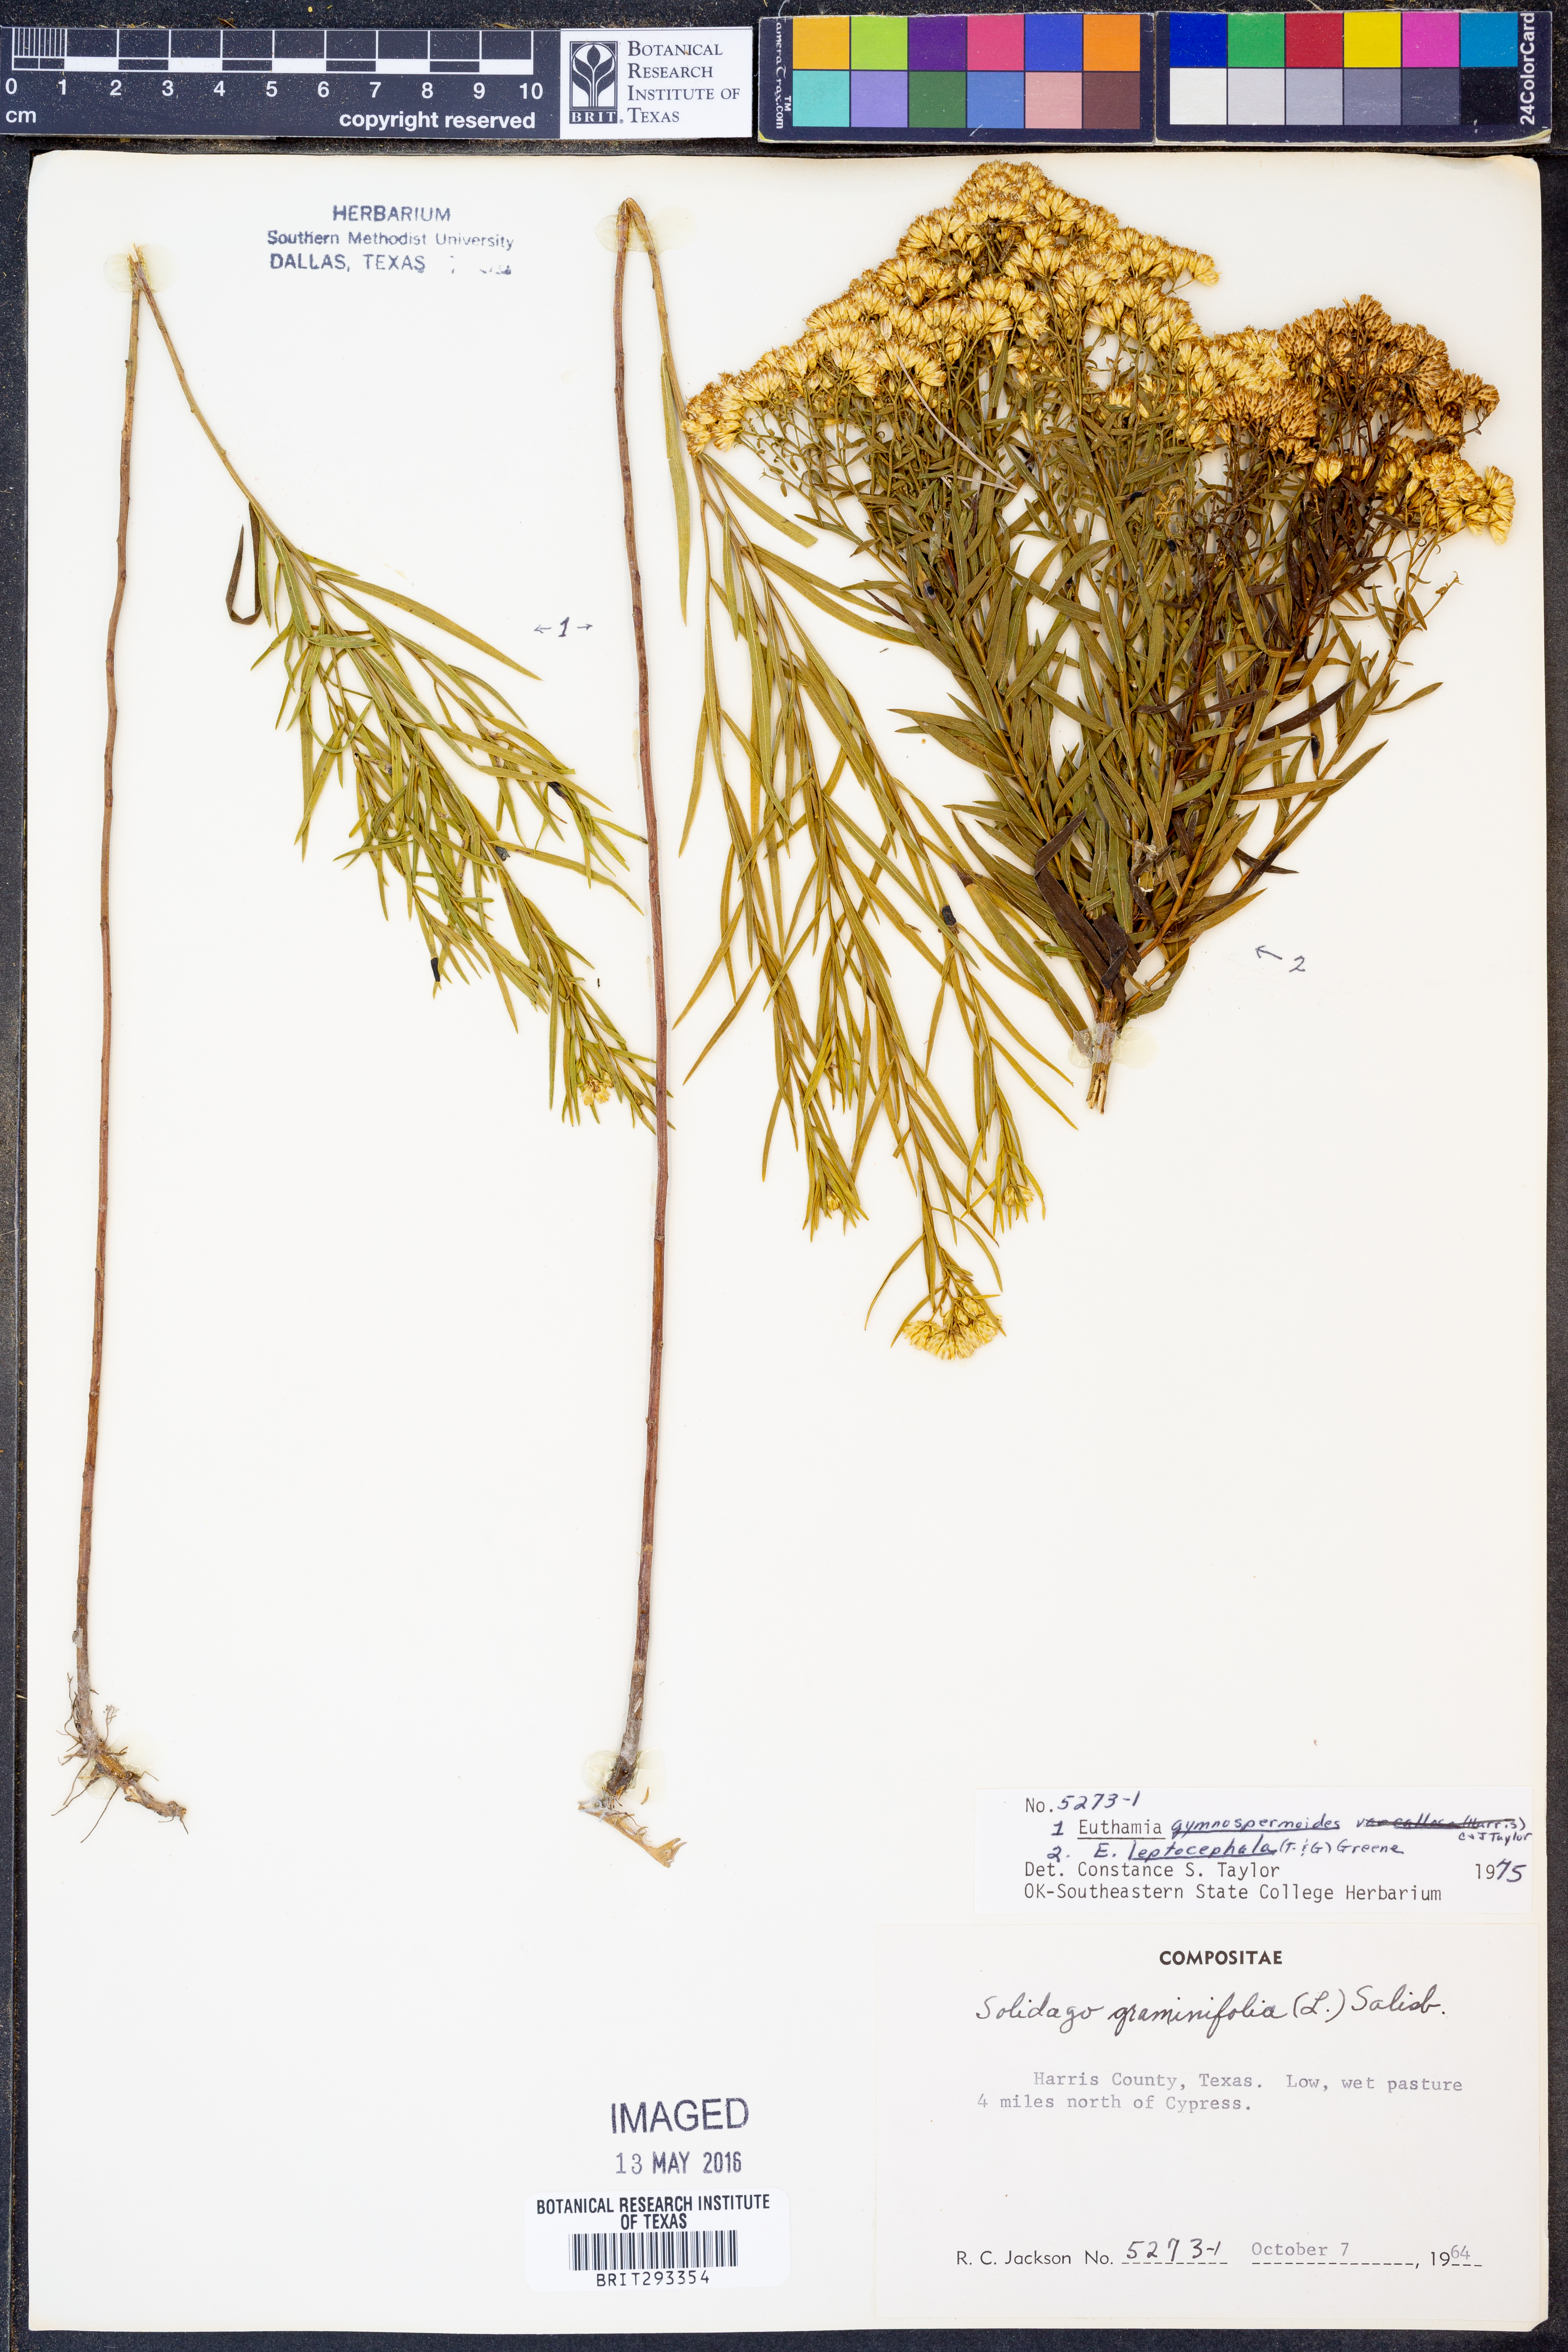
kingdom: Plantae
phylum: Tracheophyta
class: Magnoliopsida
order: Asterales
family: Asteraceae
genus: Euthamia
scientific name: Euthamia gymnospermoides
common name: Great plains goldentop
